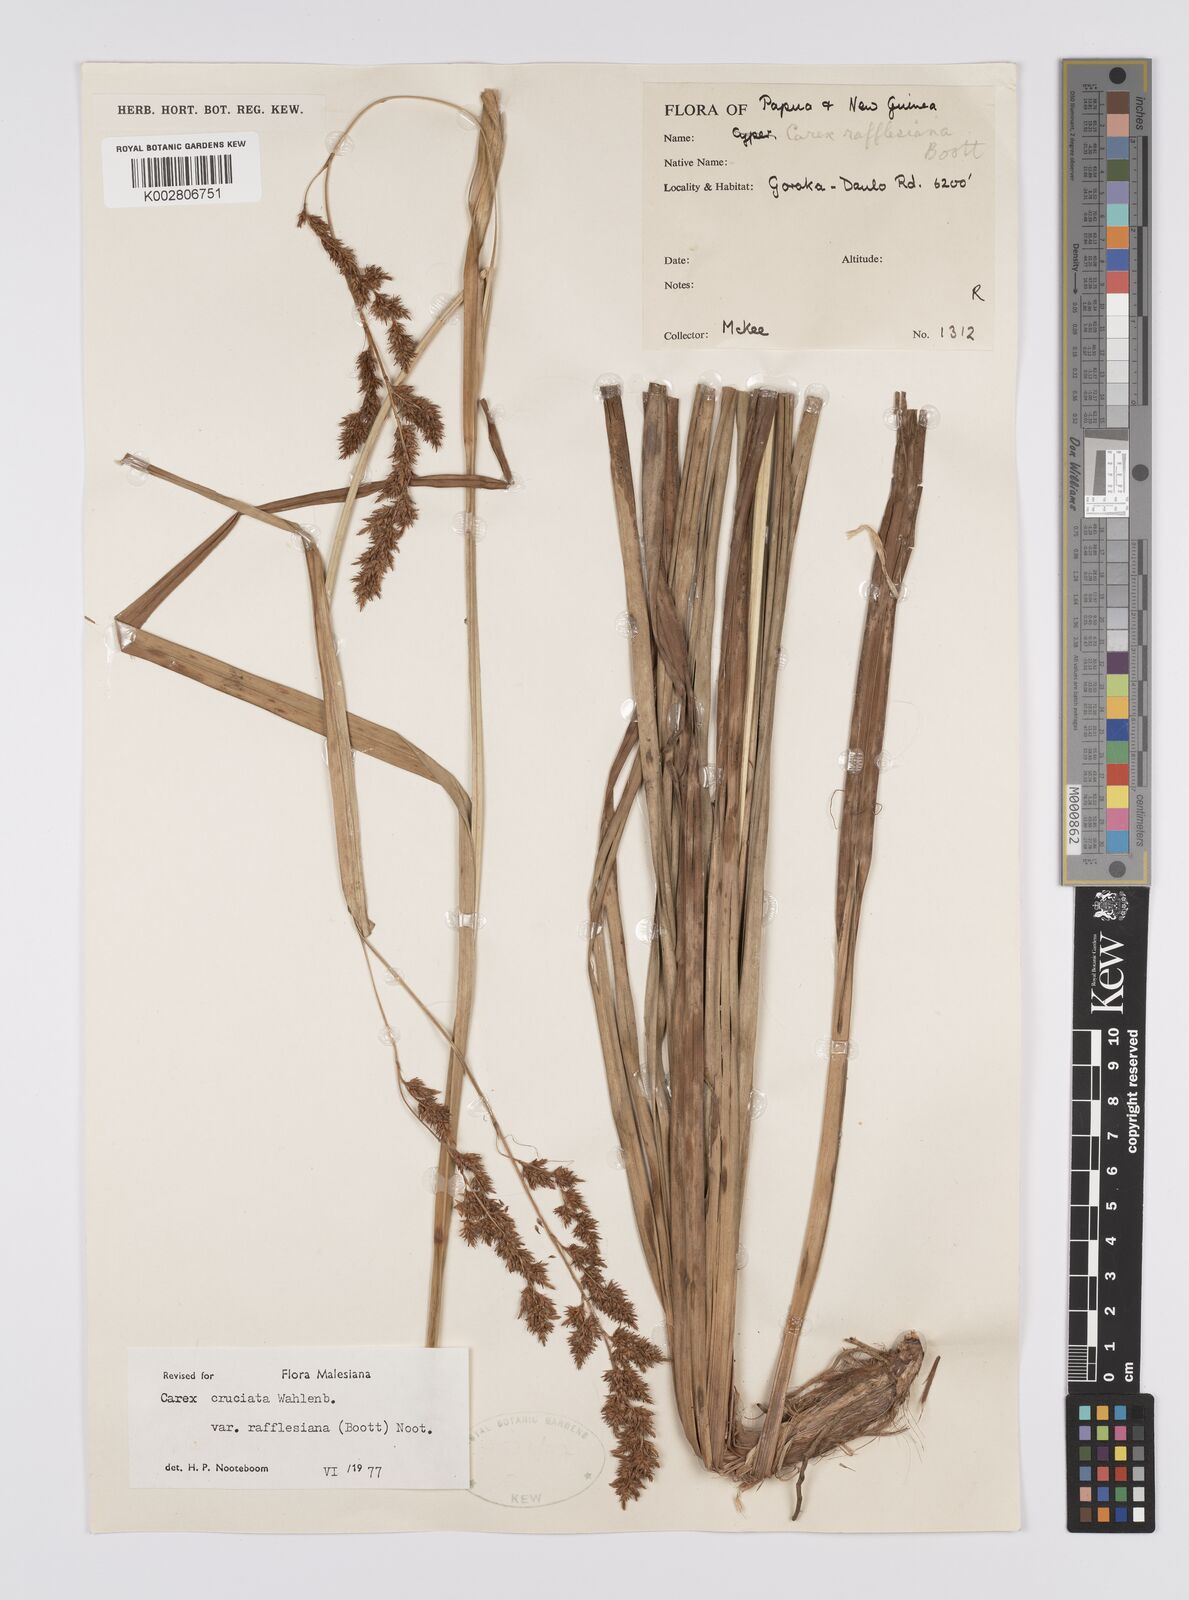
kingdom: Plantae
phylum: Tracheophyta
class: Liliopsida
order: Poales
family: Cyperaceae
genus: Carex
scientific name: Carex rafflesiana
